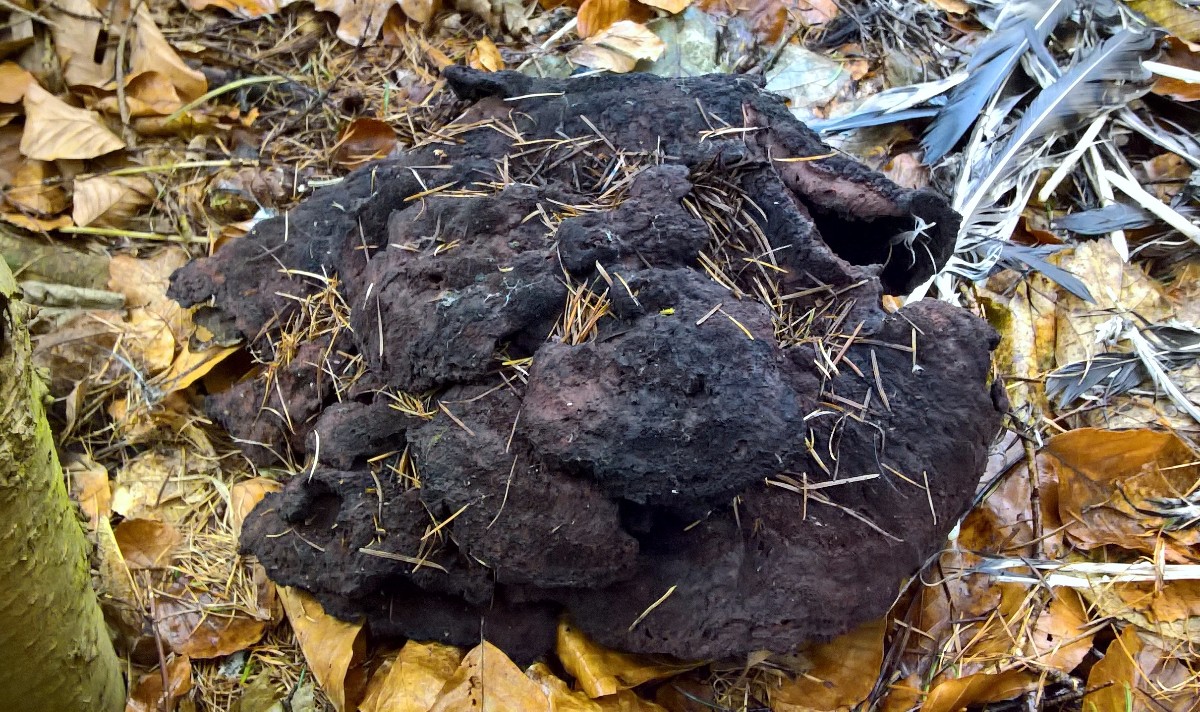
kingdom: Fungi
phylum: Basidiomycota
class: Agaricomycetes
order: Polyporales
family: Laetiporaceae
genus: Phaeolus
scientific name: Phaeolus schweinitzii
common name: brunporesvamp
